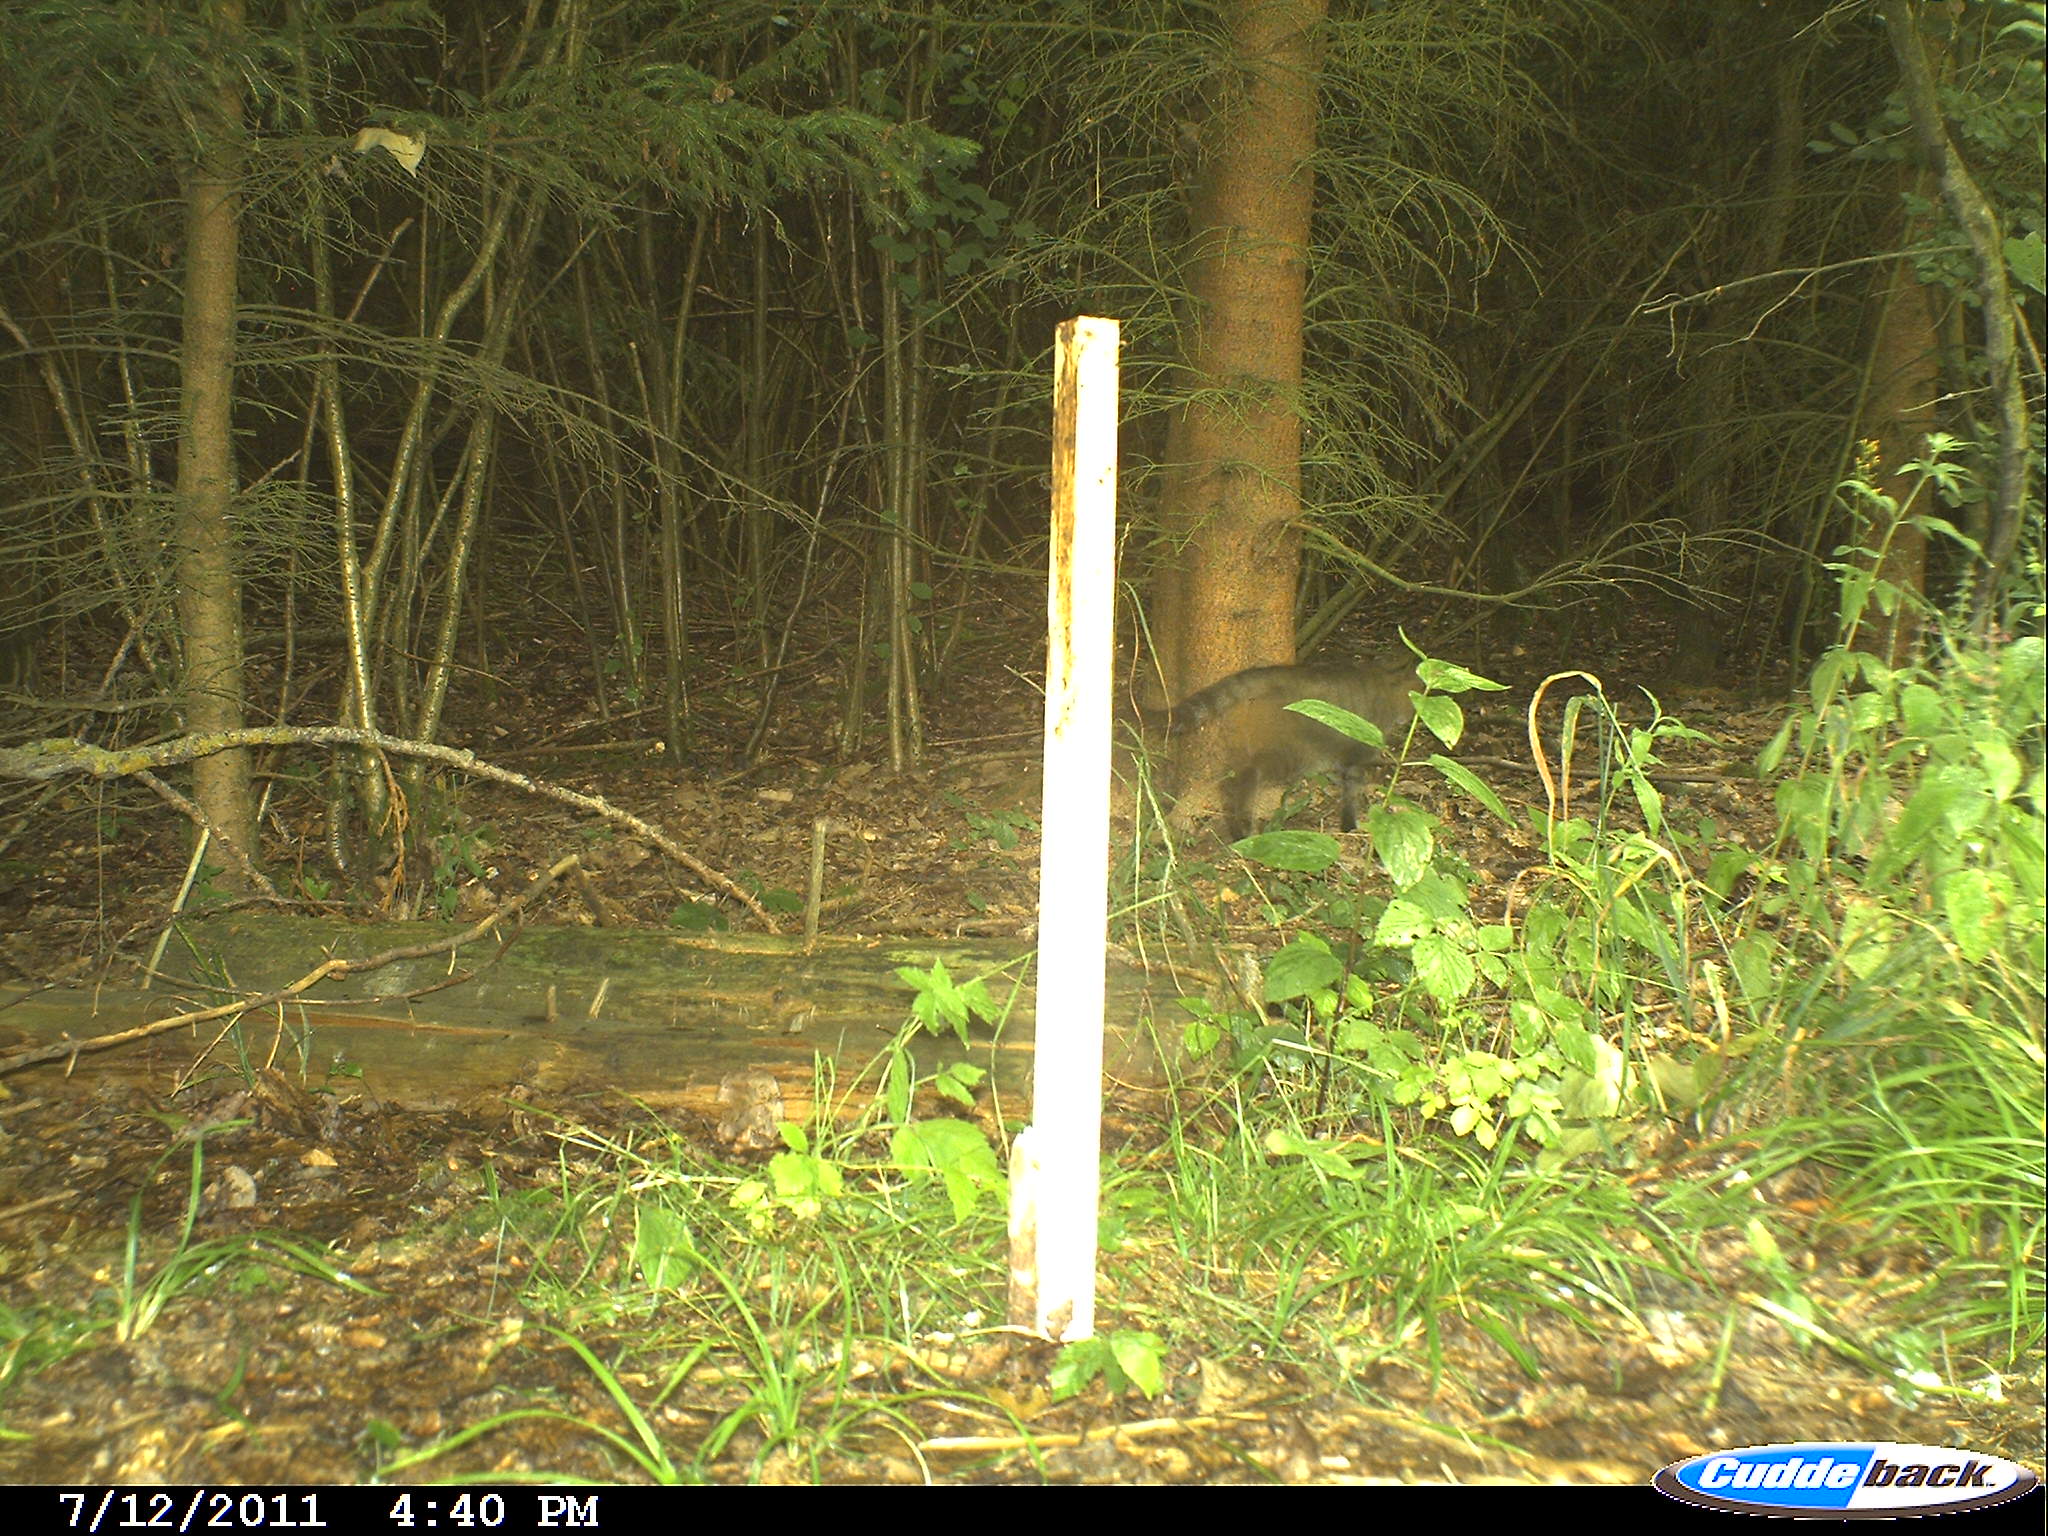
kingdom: Animalia
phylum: Chordata
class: Mammalia
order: Carnivora
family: Felidae
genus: Felis
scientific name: Felis silvestris
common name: Wildcat
